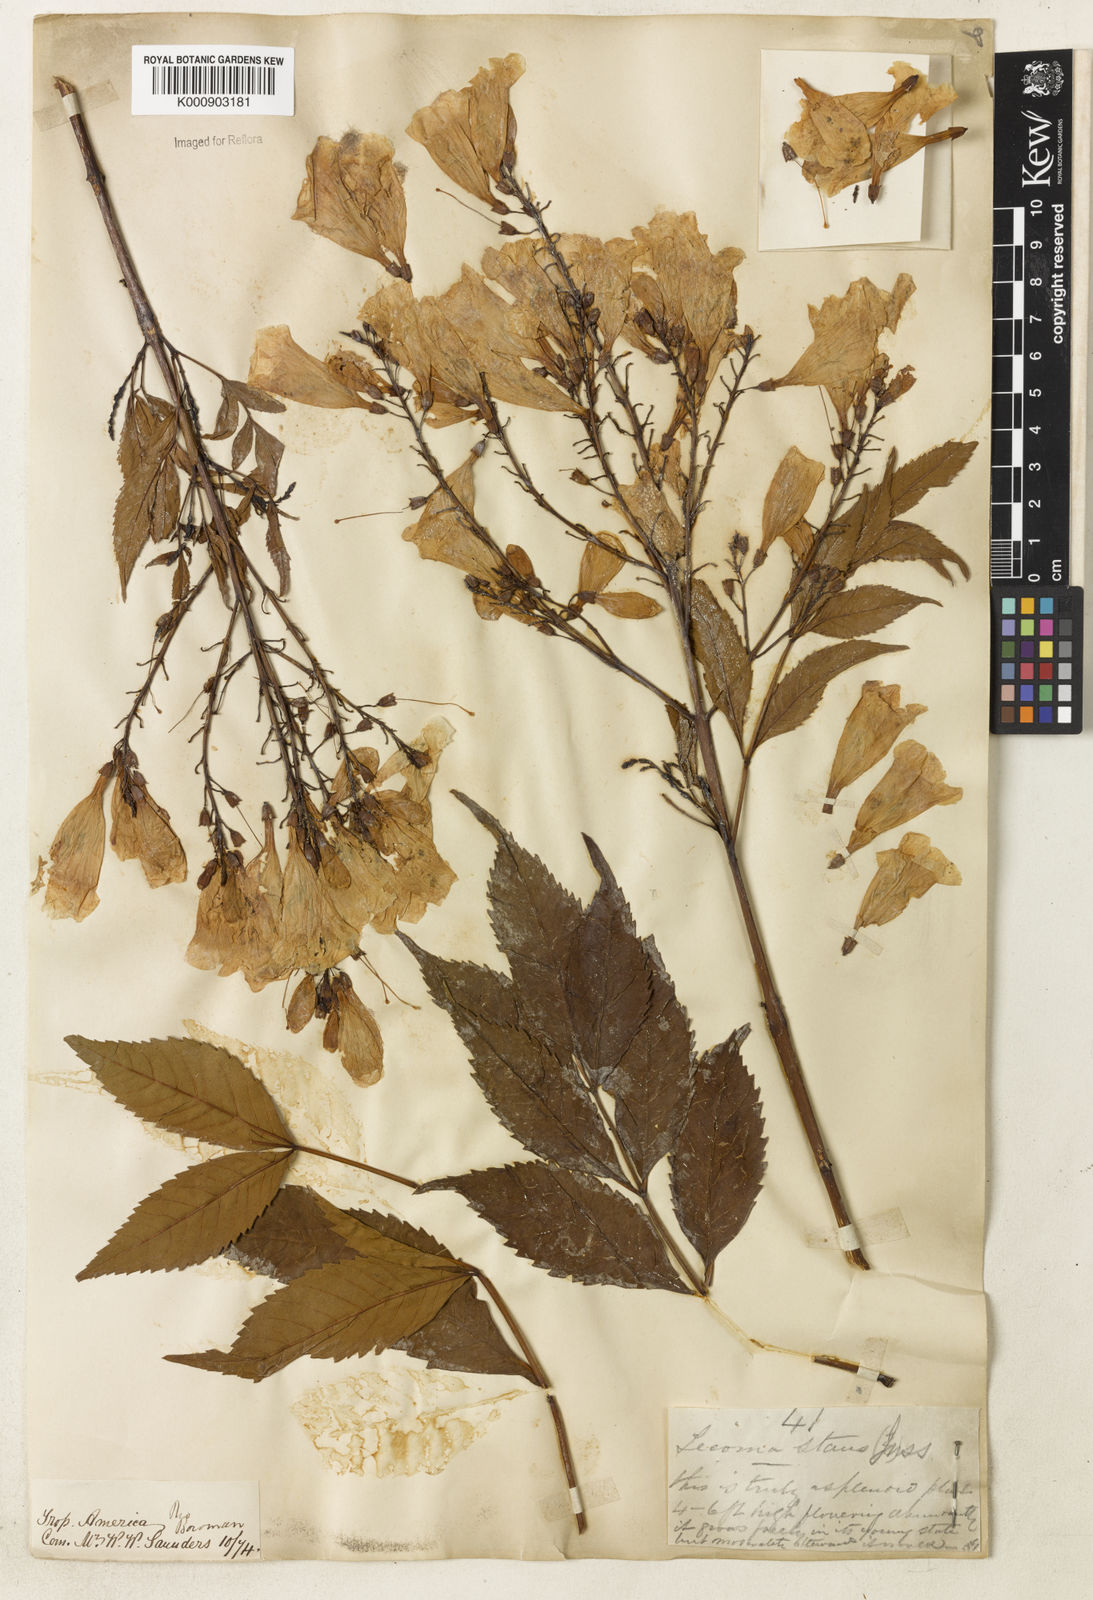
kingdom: Plantae
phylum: Tracheophyta
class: Magnoliopsida
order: Lamiales
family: Bignoniaceae
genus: Tecoma
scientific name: Tecoma stans
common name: Yellow trumpetbush
